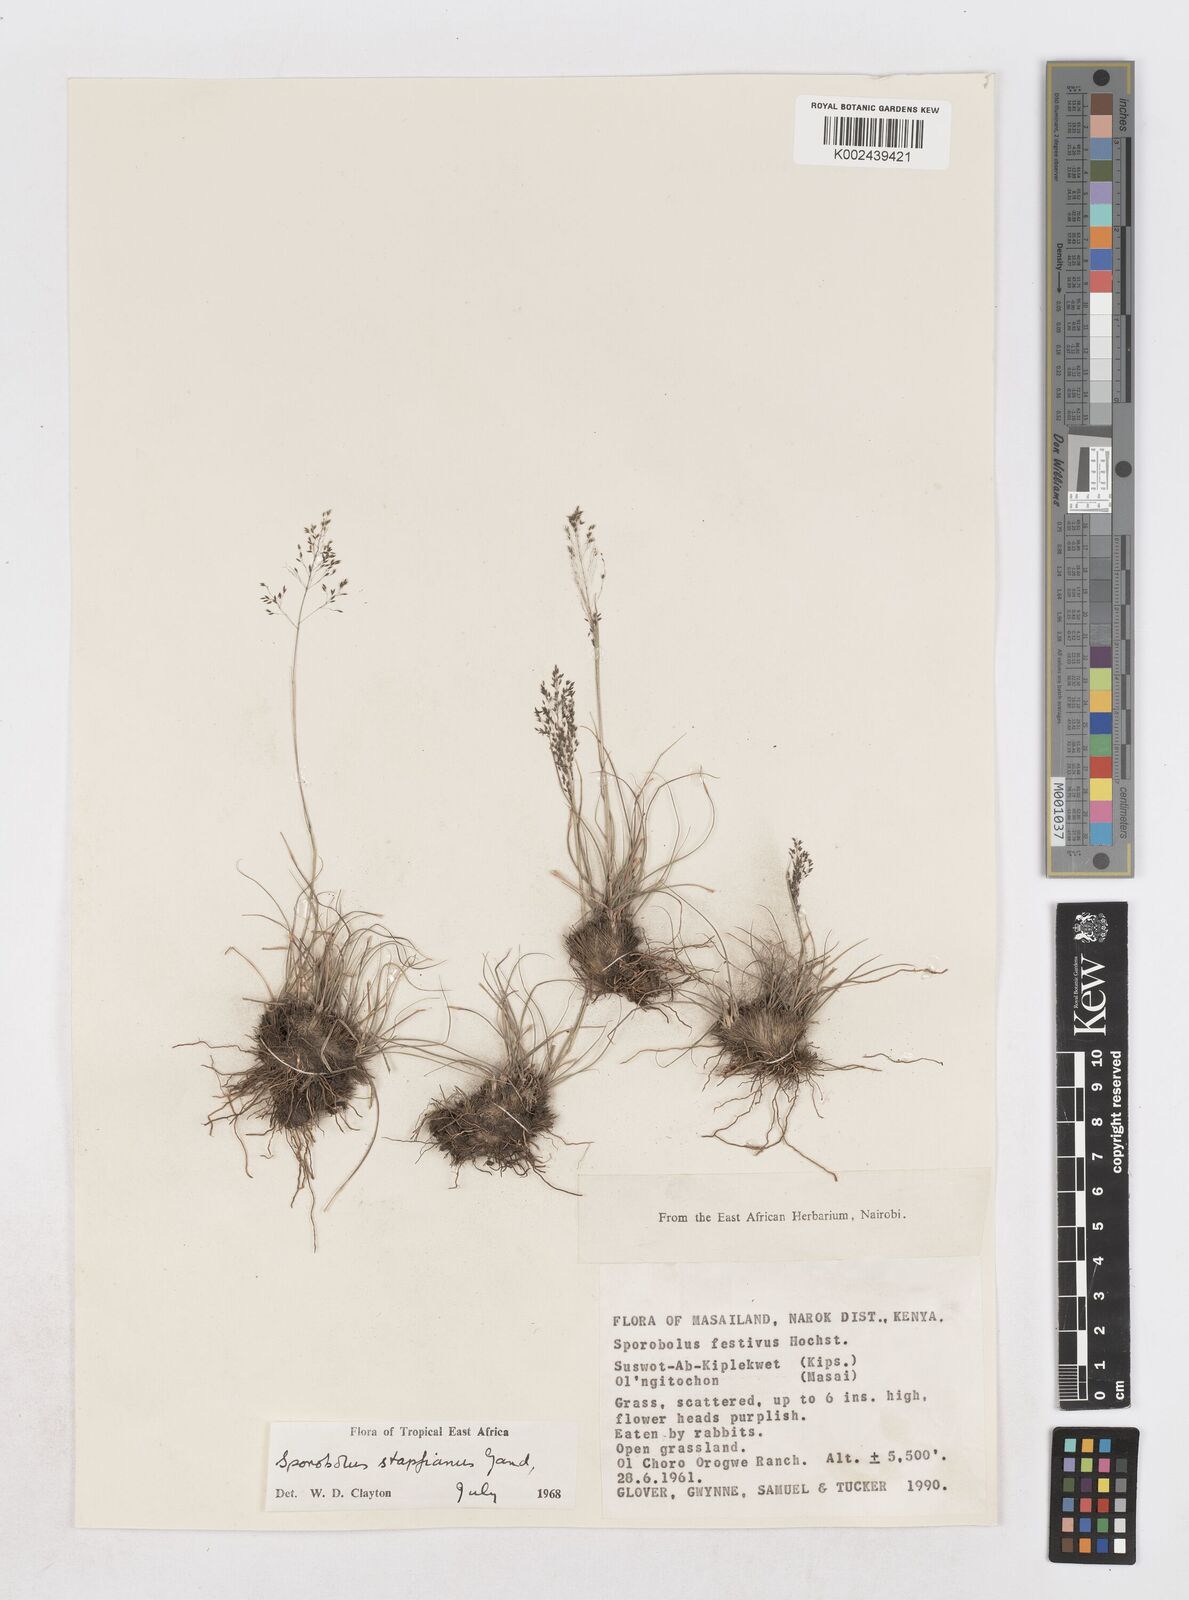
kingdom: Plantae
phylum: Tracheophyta
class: Liliopsida
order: Poales
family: Poaceae
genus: Sporobolus
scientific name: Sporobolus stapfianus
